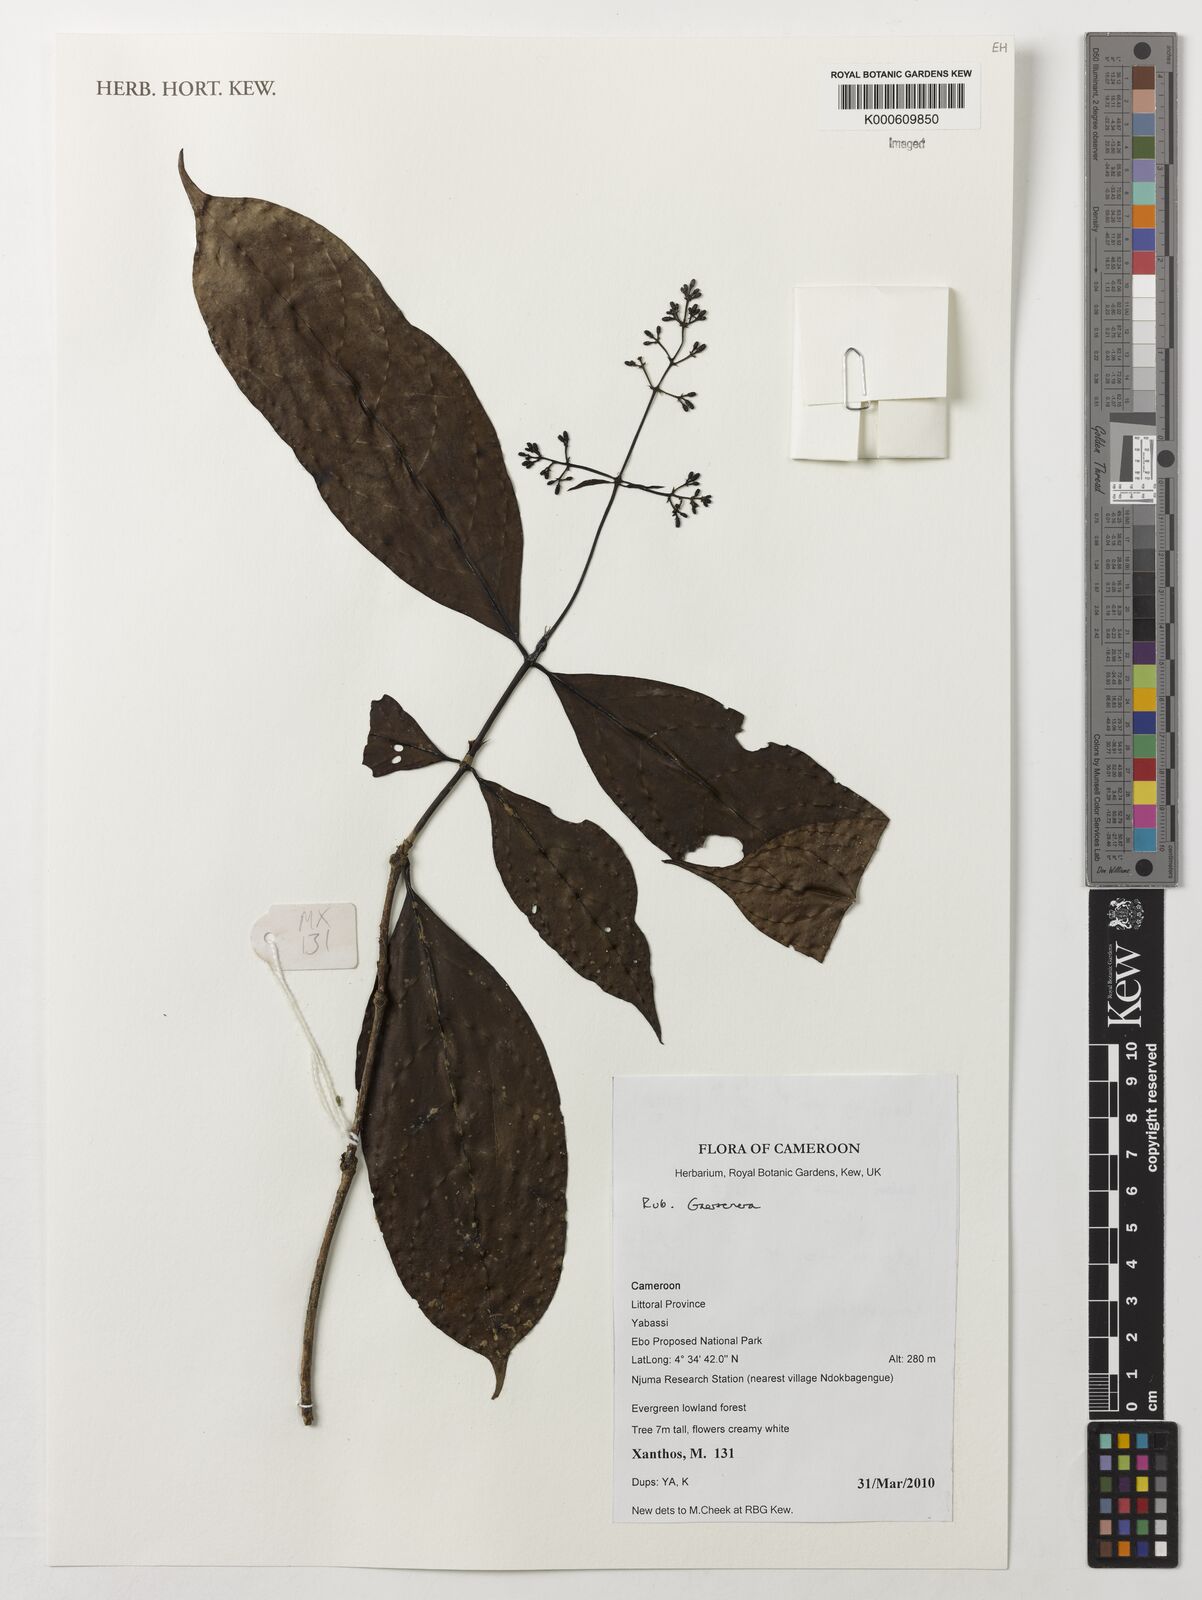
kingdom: Plantae
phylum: Tracheophyta
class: Magnoliopsida
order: Gentianales
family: Rubiaceae
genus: Gaertnera
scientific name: Gaertnera
